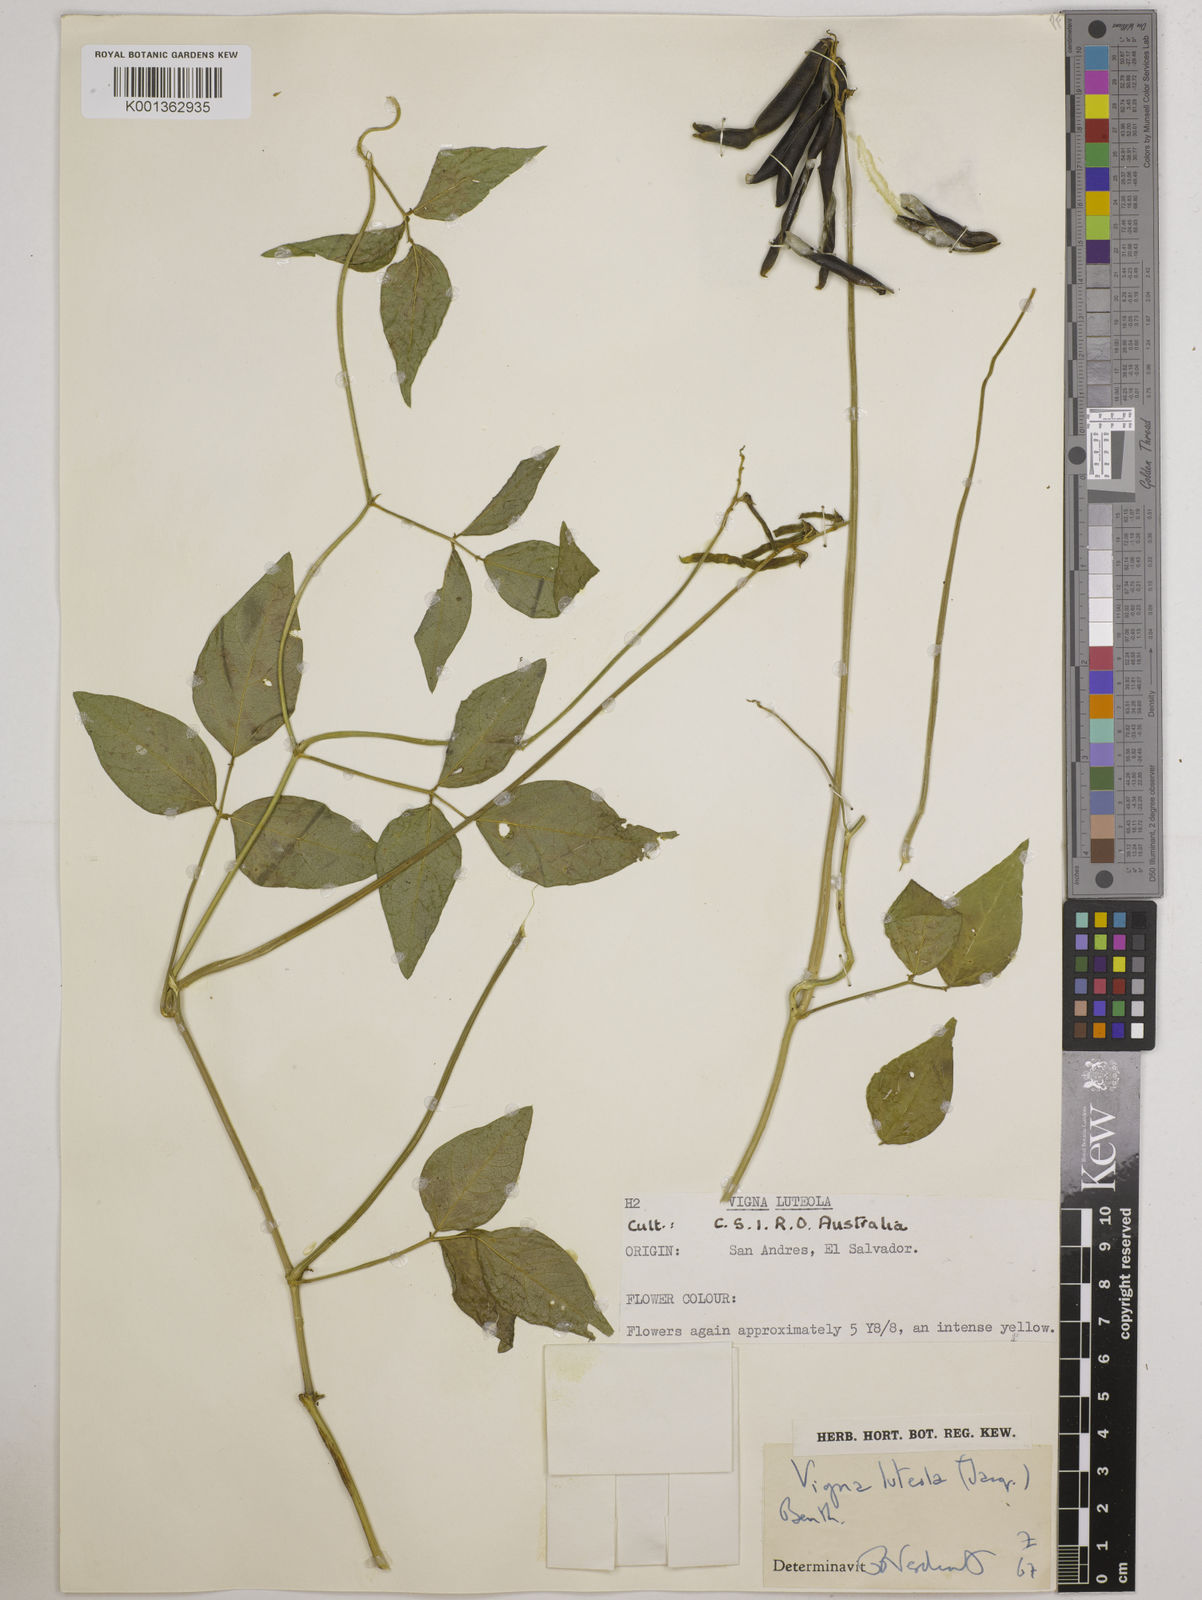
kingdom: Plantae
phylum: Tracheophyta
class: Magnoliopsida
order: Fabales
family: Fabaceae
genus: Vigna
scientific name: Vigna luteola
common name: Hairypod cowpea
